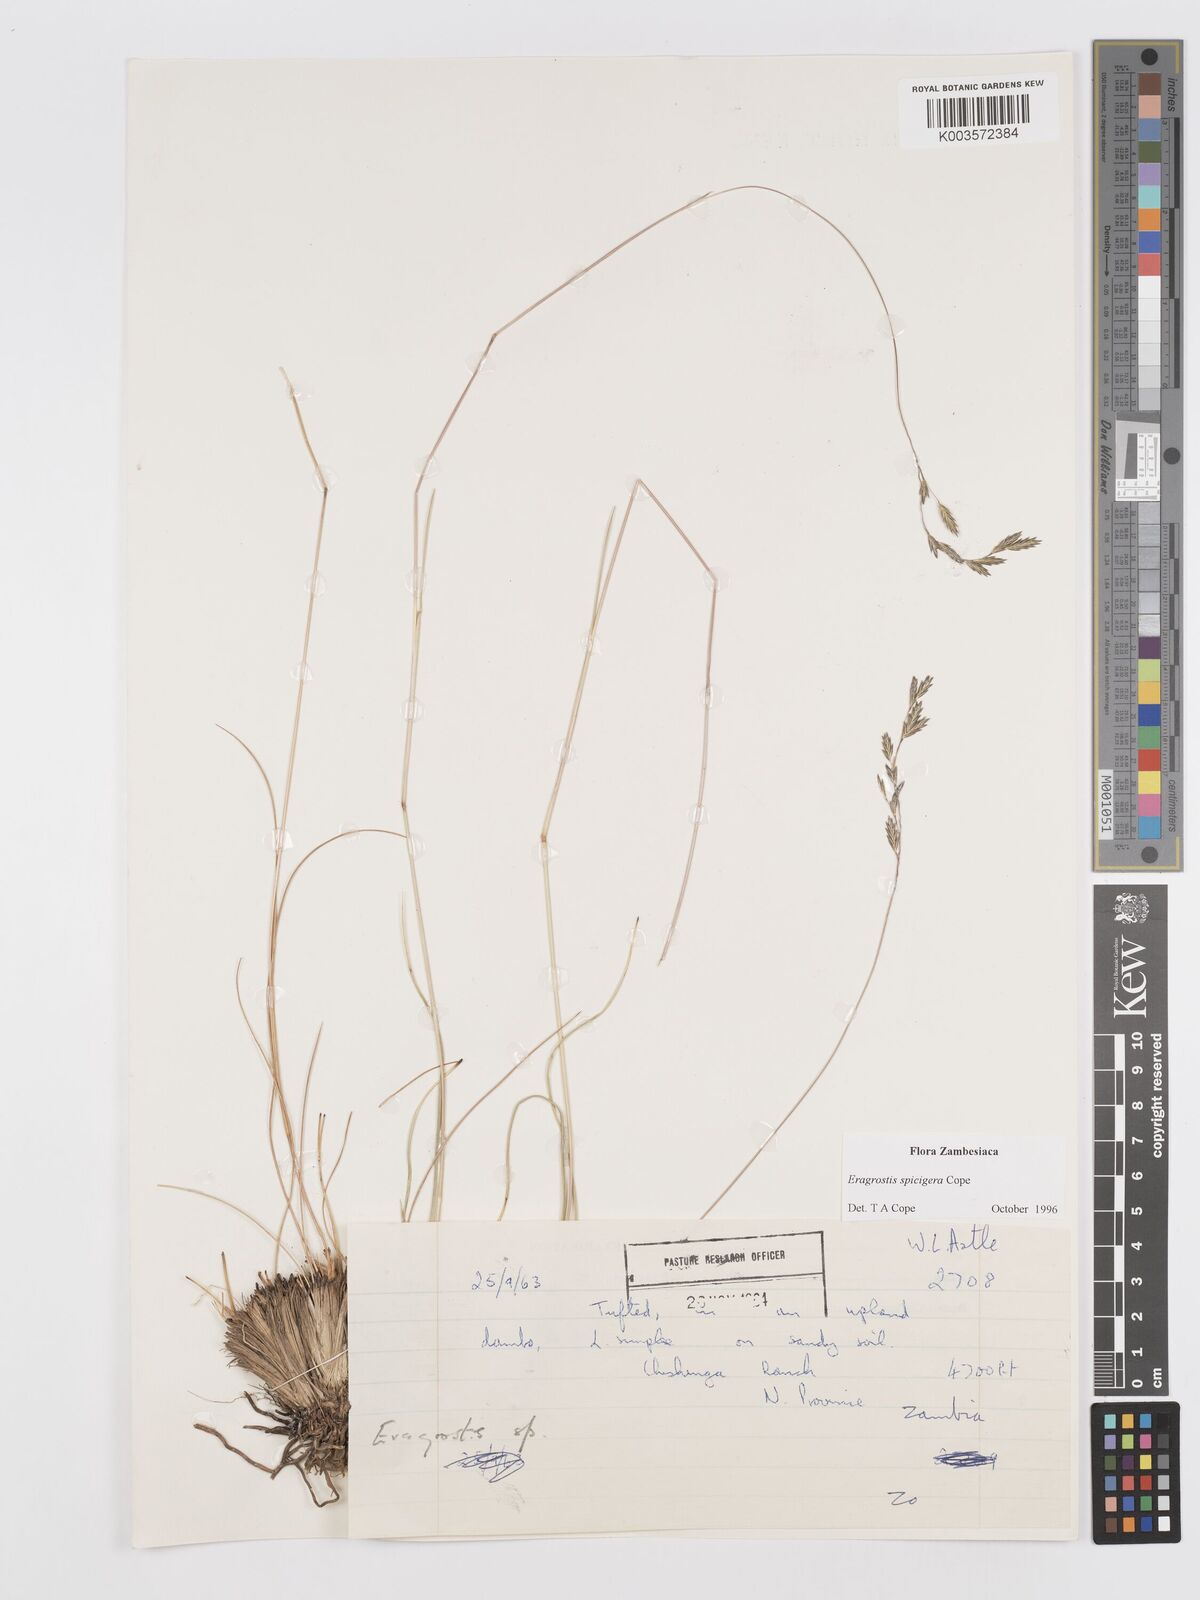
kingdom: Plantae
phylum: Tracheophyta
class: Liliopsida
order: Poales
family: Poaceae
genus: Eragrostis
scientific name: Eragrostis spicigera
